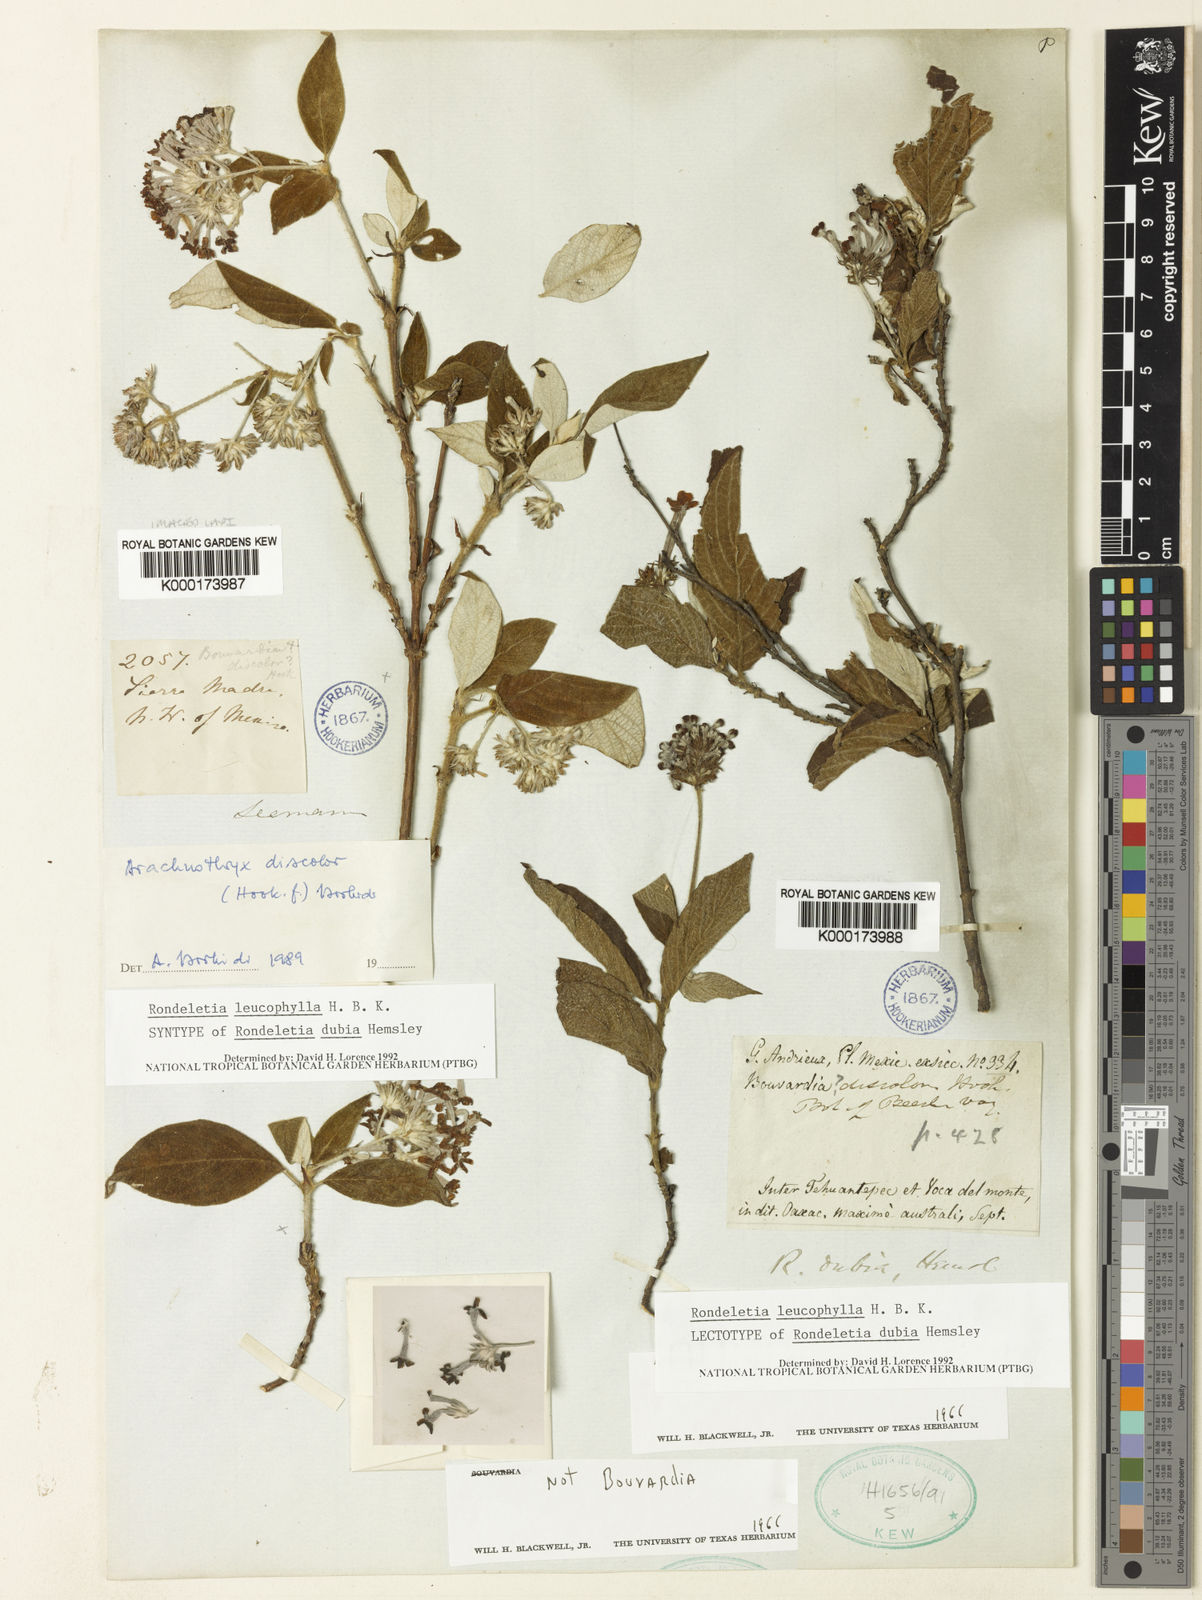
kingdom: Plantae
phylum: Tracheophyta
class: Magnoliopsida
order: Gentianales
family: Rubiaceae
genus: Arachnothryx
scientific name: Arachnothryx leucophylla
